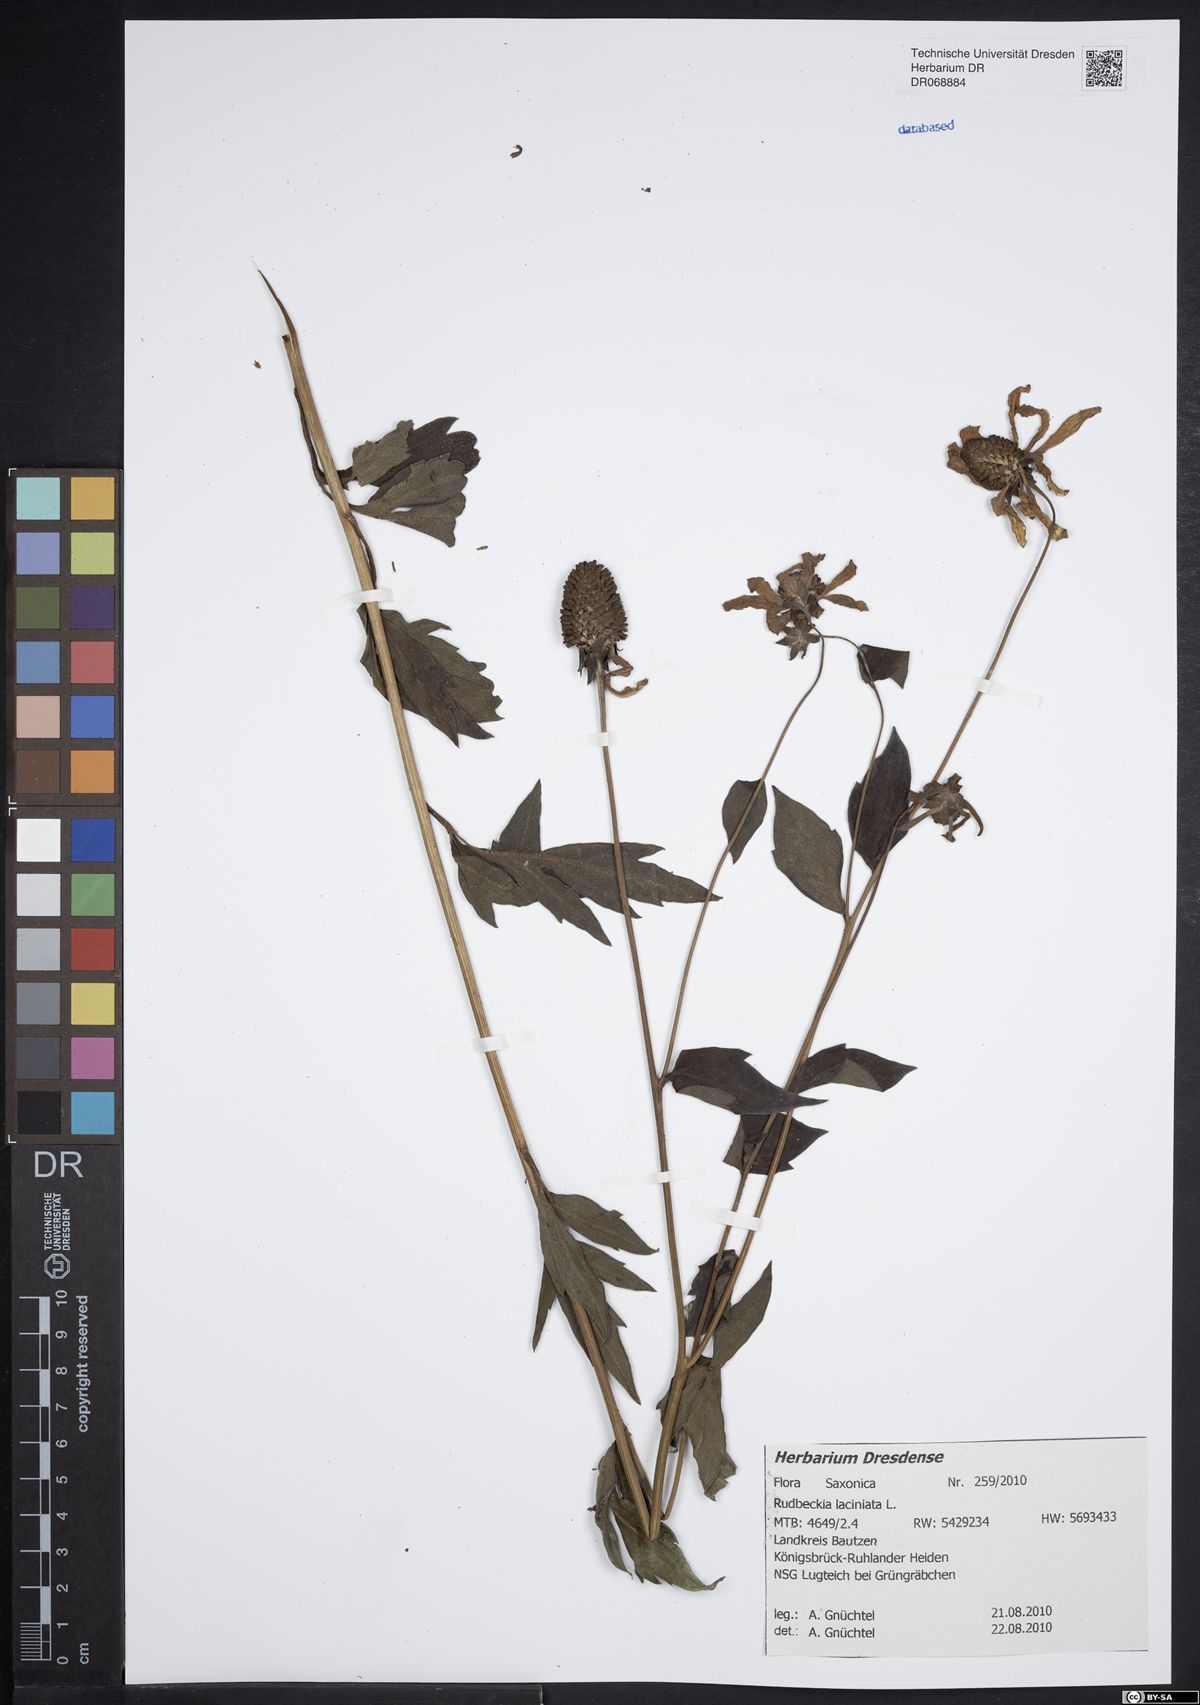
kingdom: Plantae
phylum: Tracheophyta
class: Magnoliopsida
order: Asterales
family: Asteraceae
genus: Rudbeckia
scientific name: Rudbeckia laciniata
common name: Coneflower
